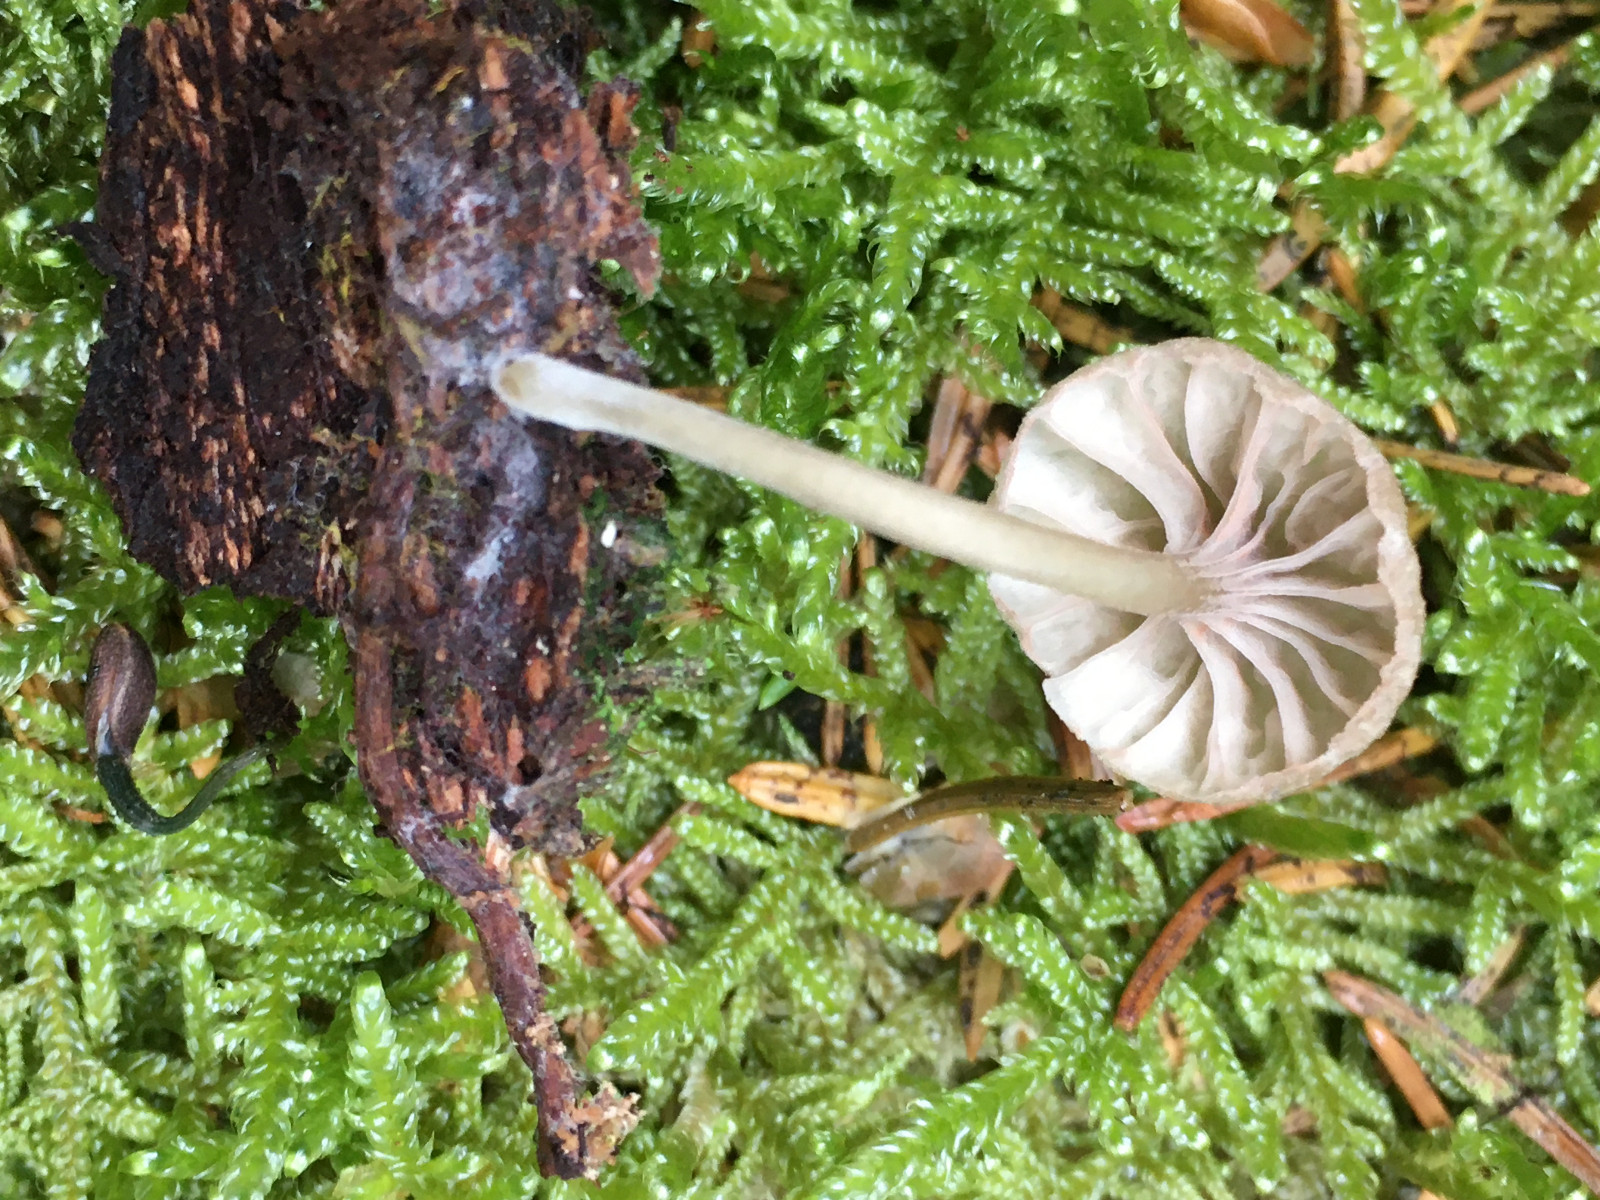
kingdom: Fungi
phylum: Basidiomycota
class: Agaricomycetes
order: Agaricales
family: Entolomataceae
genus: Entoloma
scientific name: Entoloma rhodocylix
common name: fjernbladet rødblad
